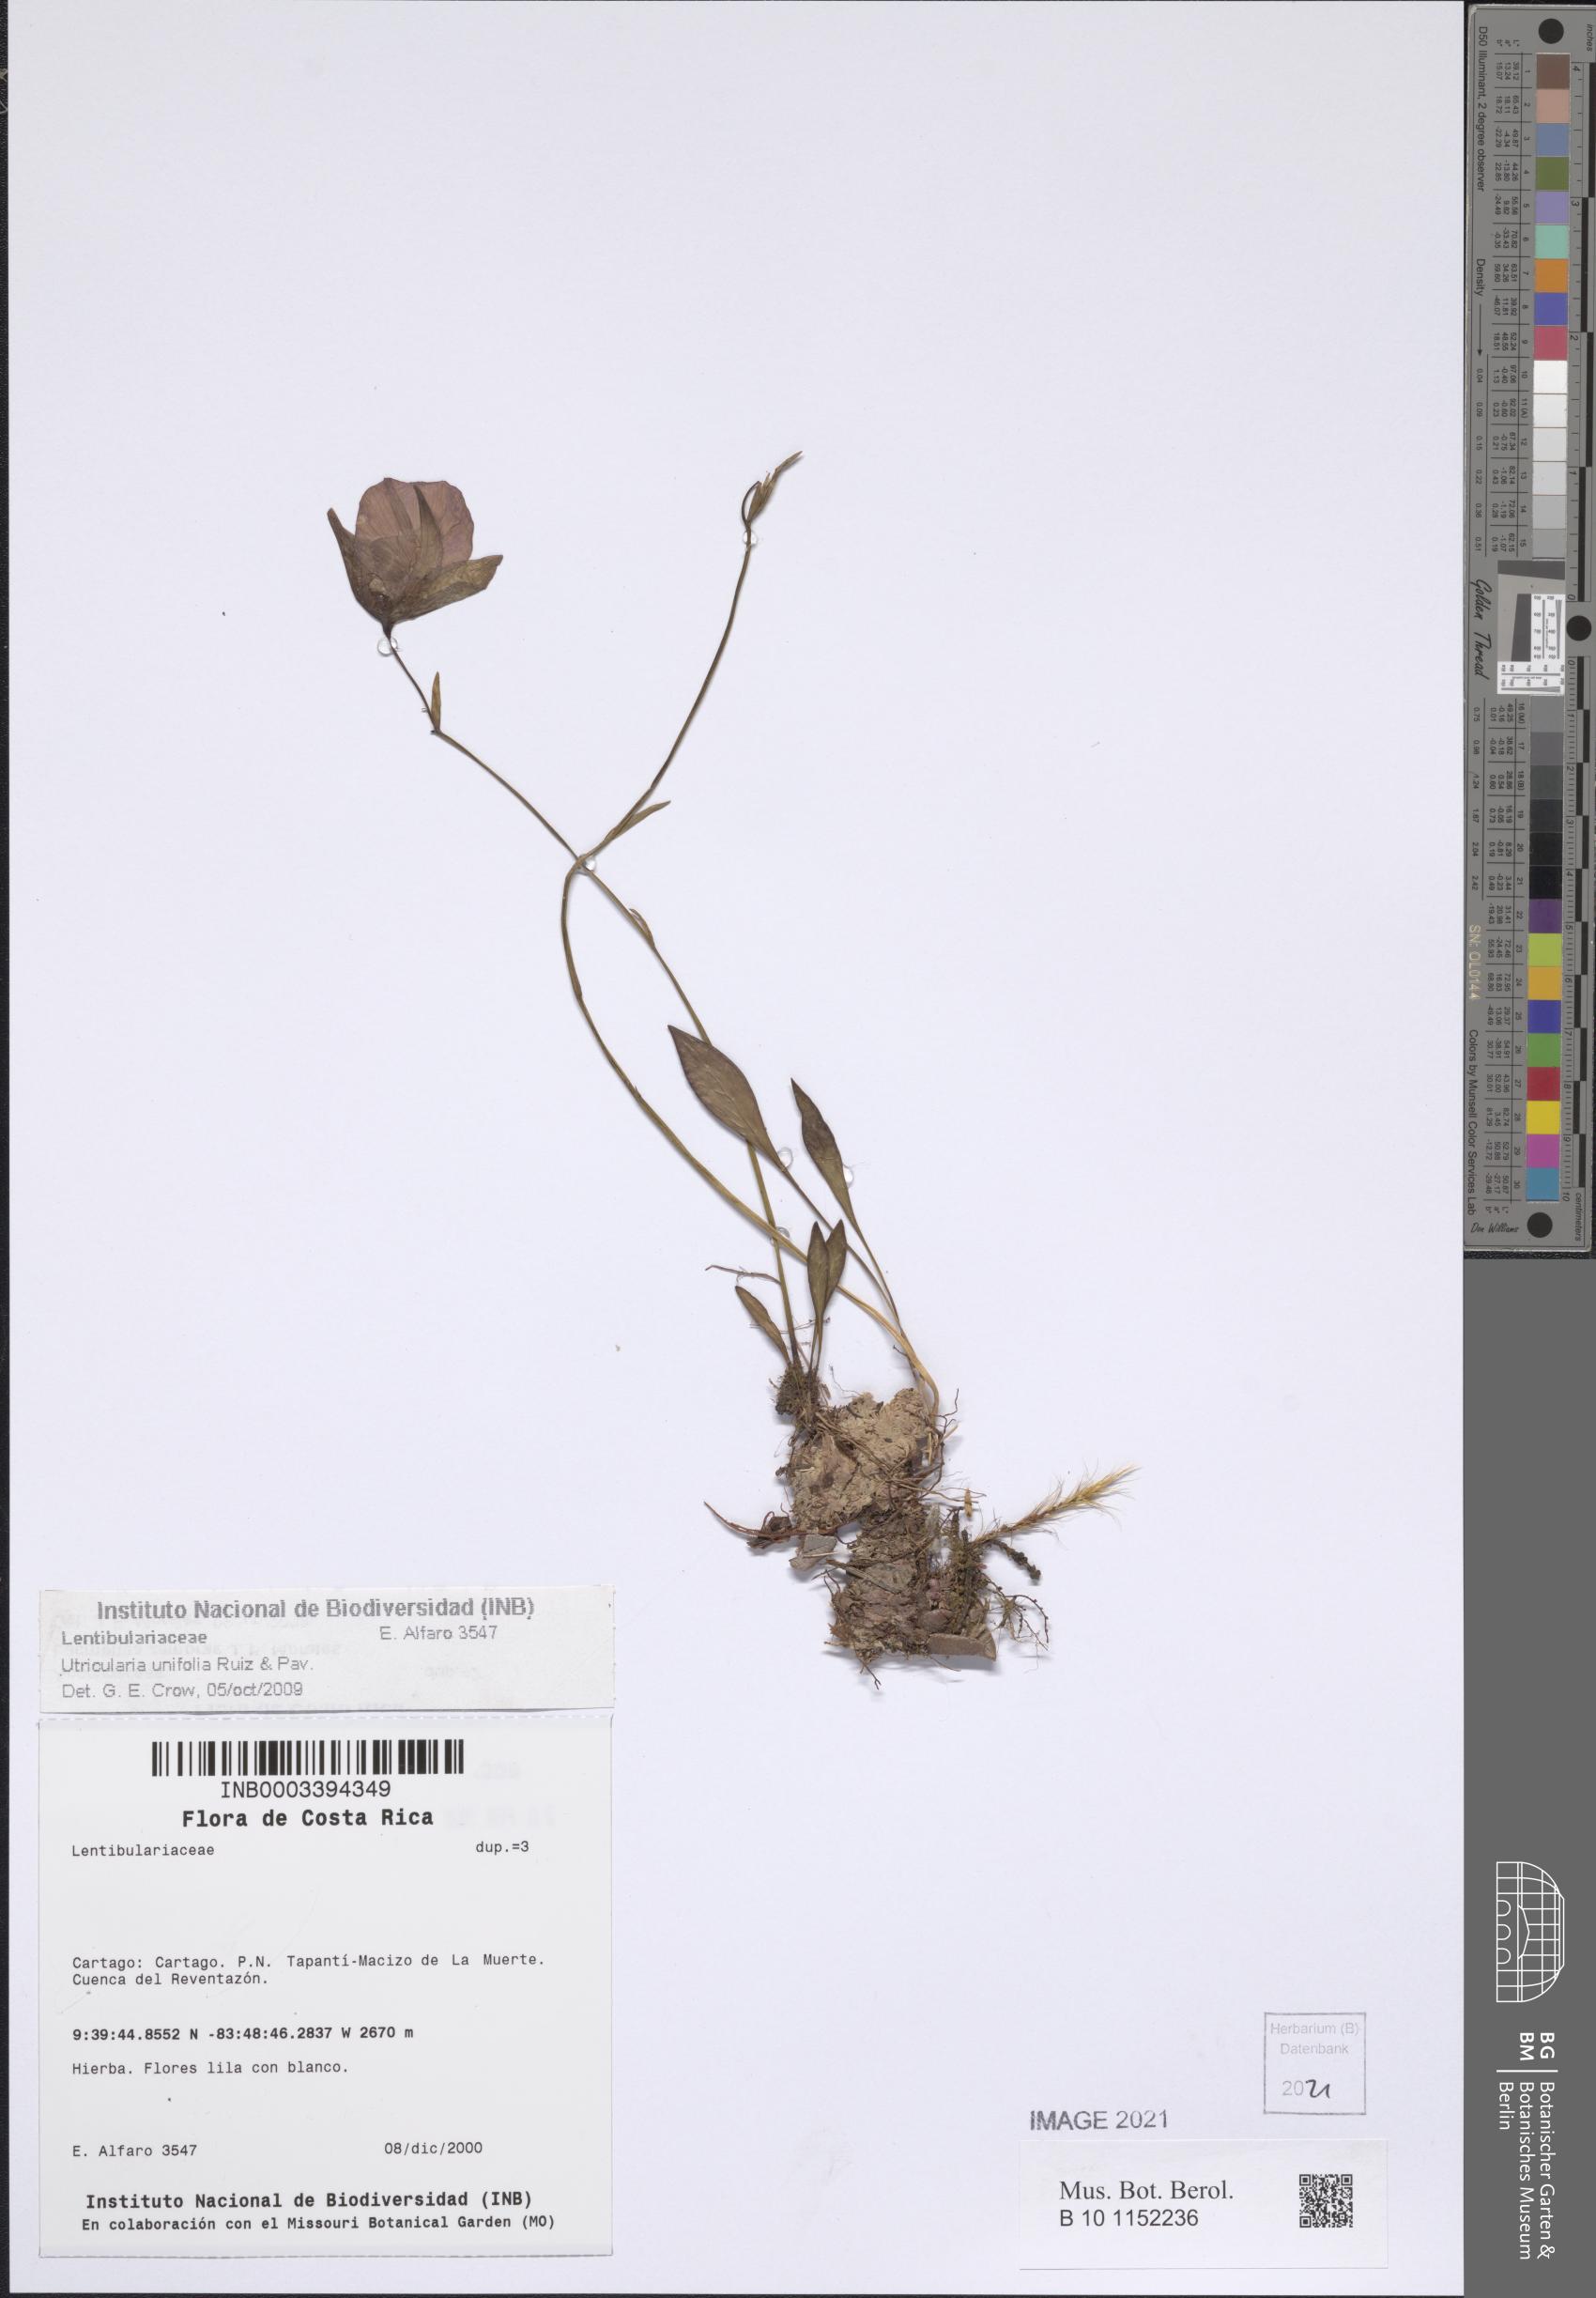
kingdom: Plantae
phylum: Tracheophyta
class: Magnoliopsida
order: Lamiales
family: Lentibulariaceae
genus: Utricularia
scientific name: Utricularia unifolia
